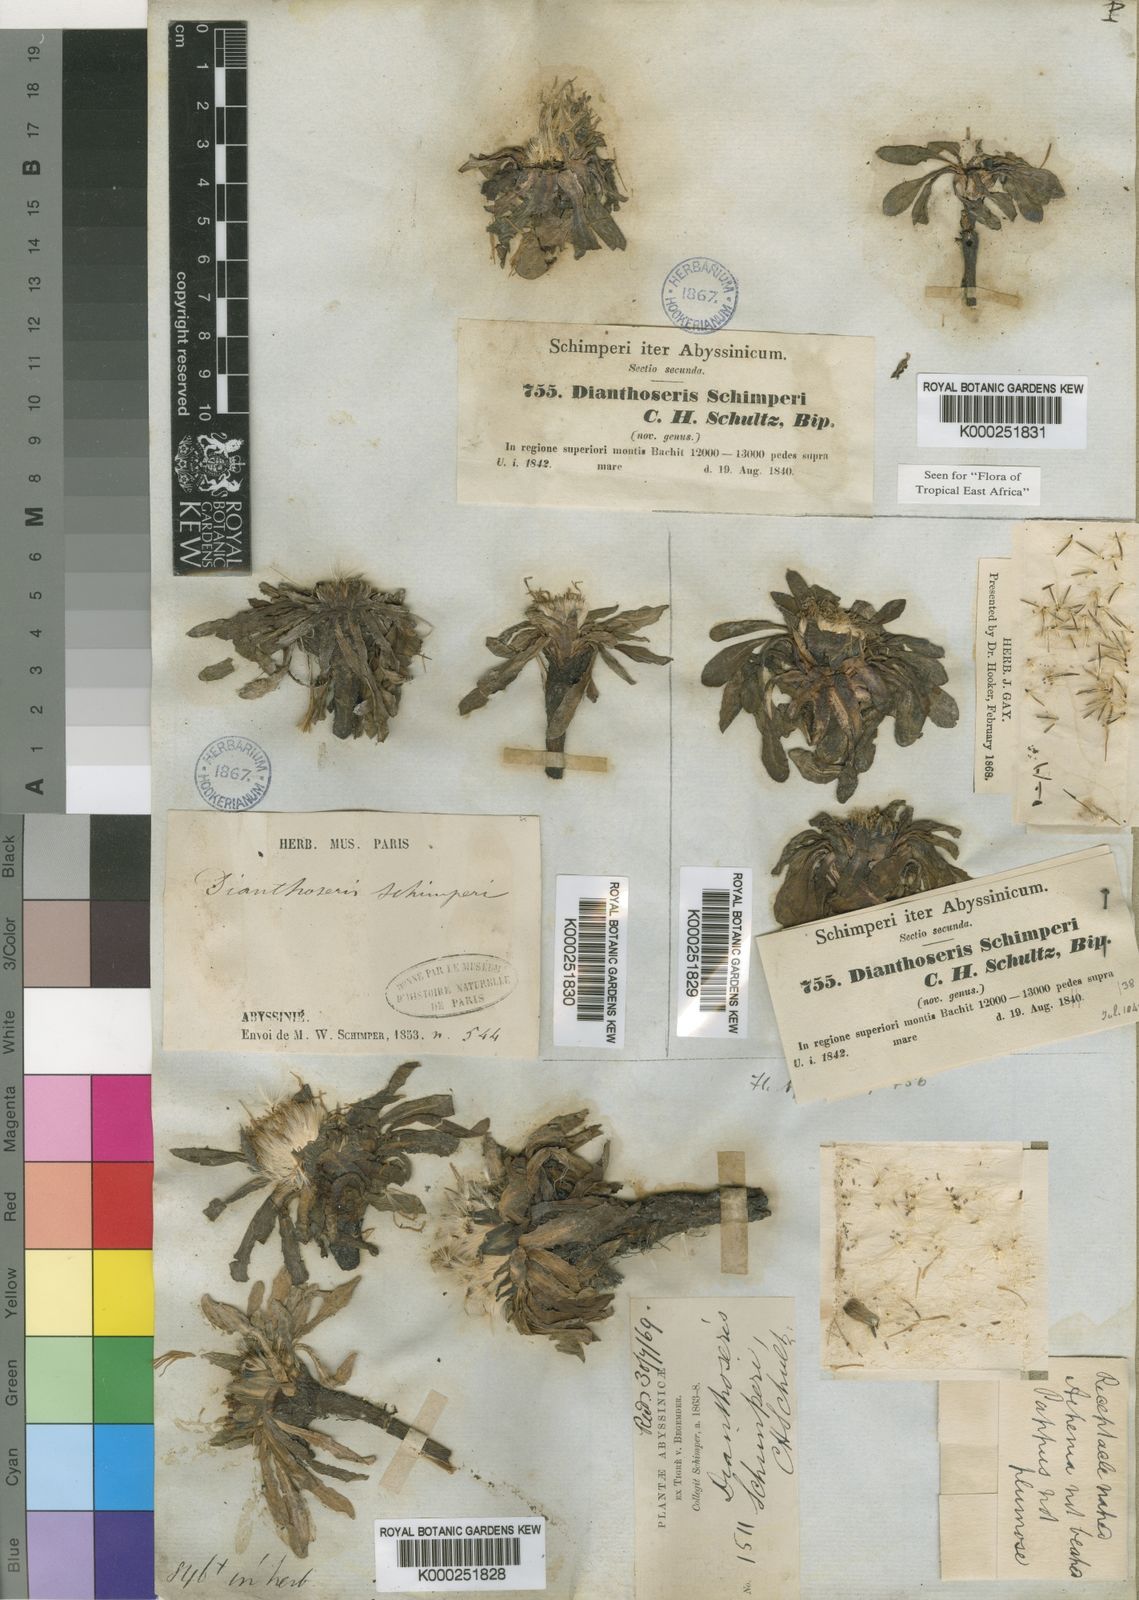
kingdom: Plantae
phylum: Tracheophyta
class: Magnoliopsida
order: Asterales
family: Asteraceae
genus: Crepis
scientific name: Crepis dianthoseris
